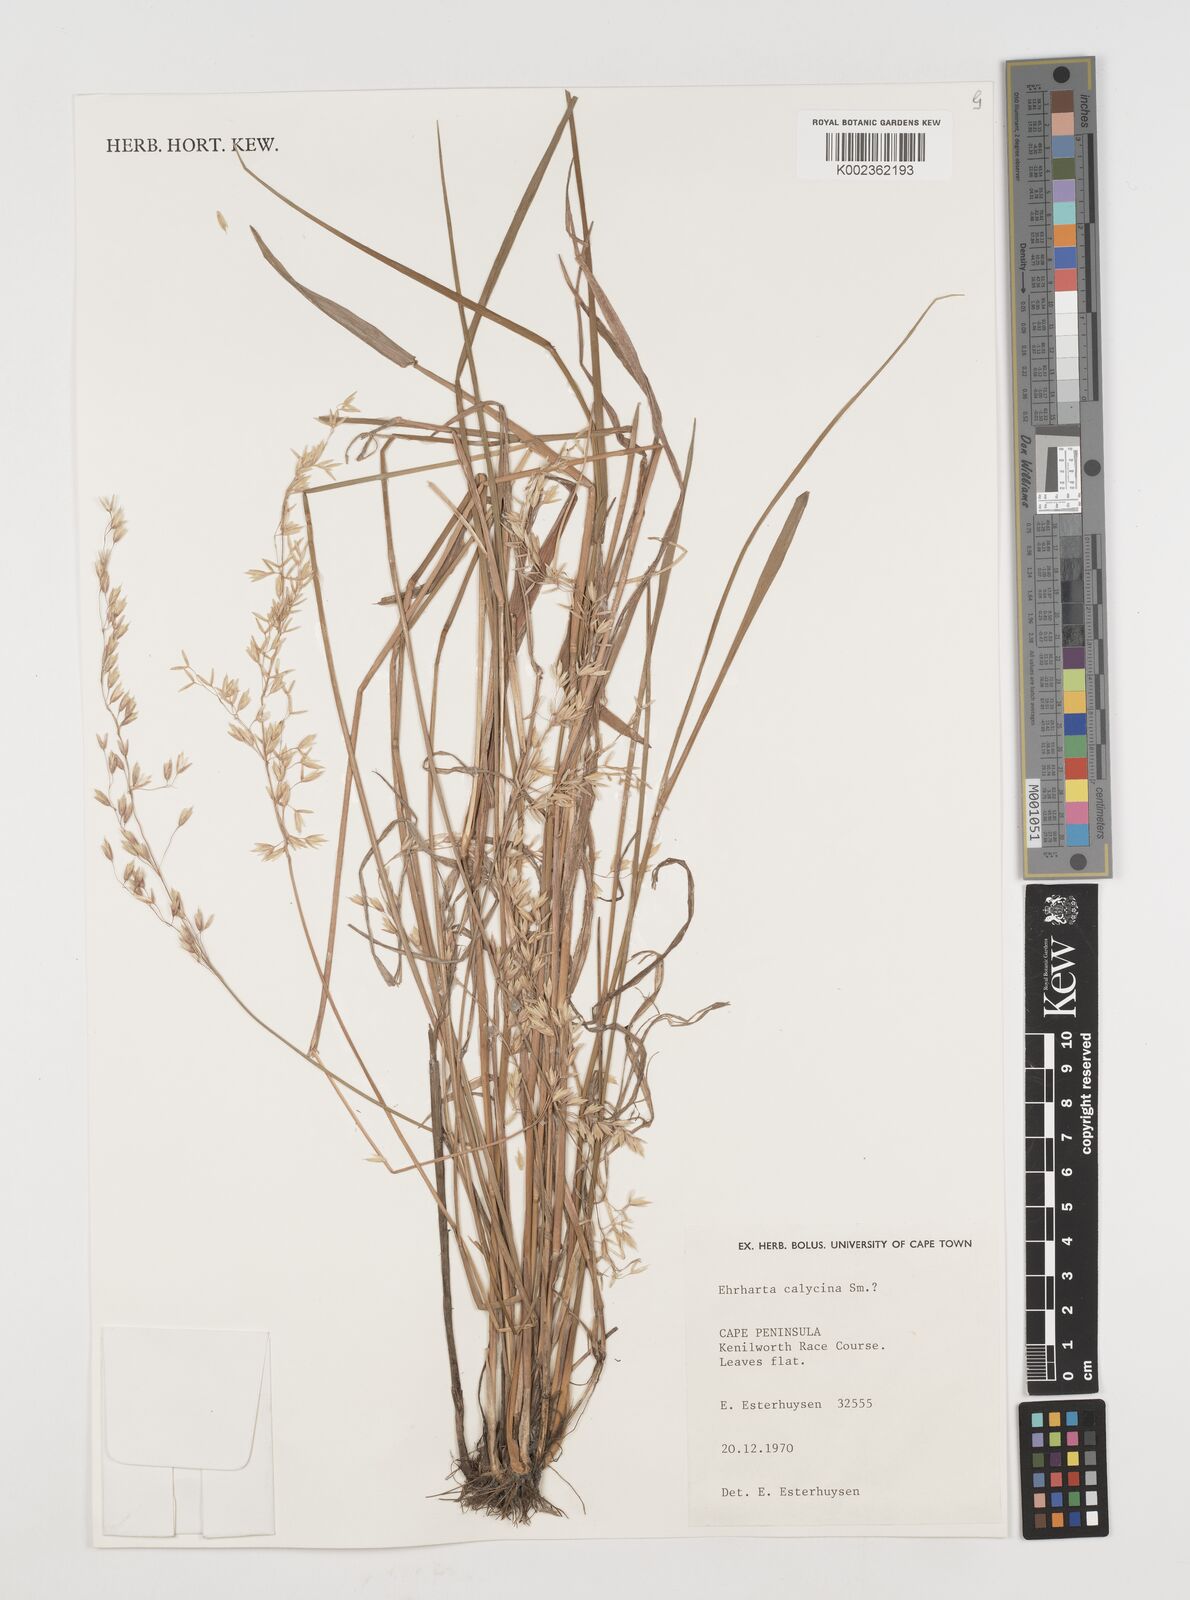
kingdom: Plantae
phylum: Tracheophyta
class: Liliopsida
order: Poales
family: Poaceae
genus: Ehrharta
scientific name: Ehrharta
